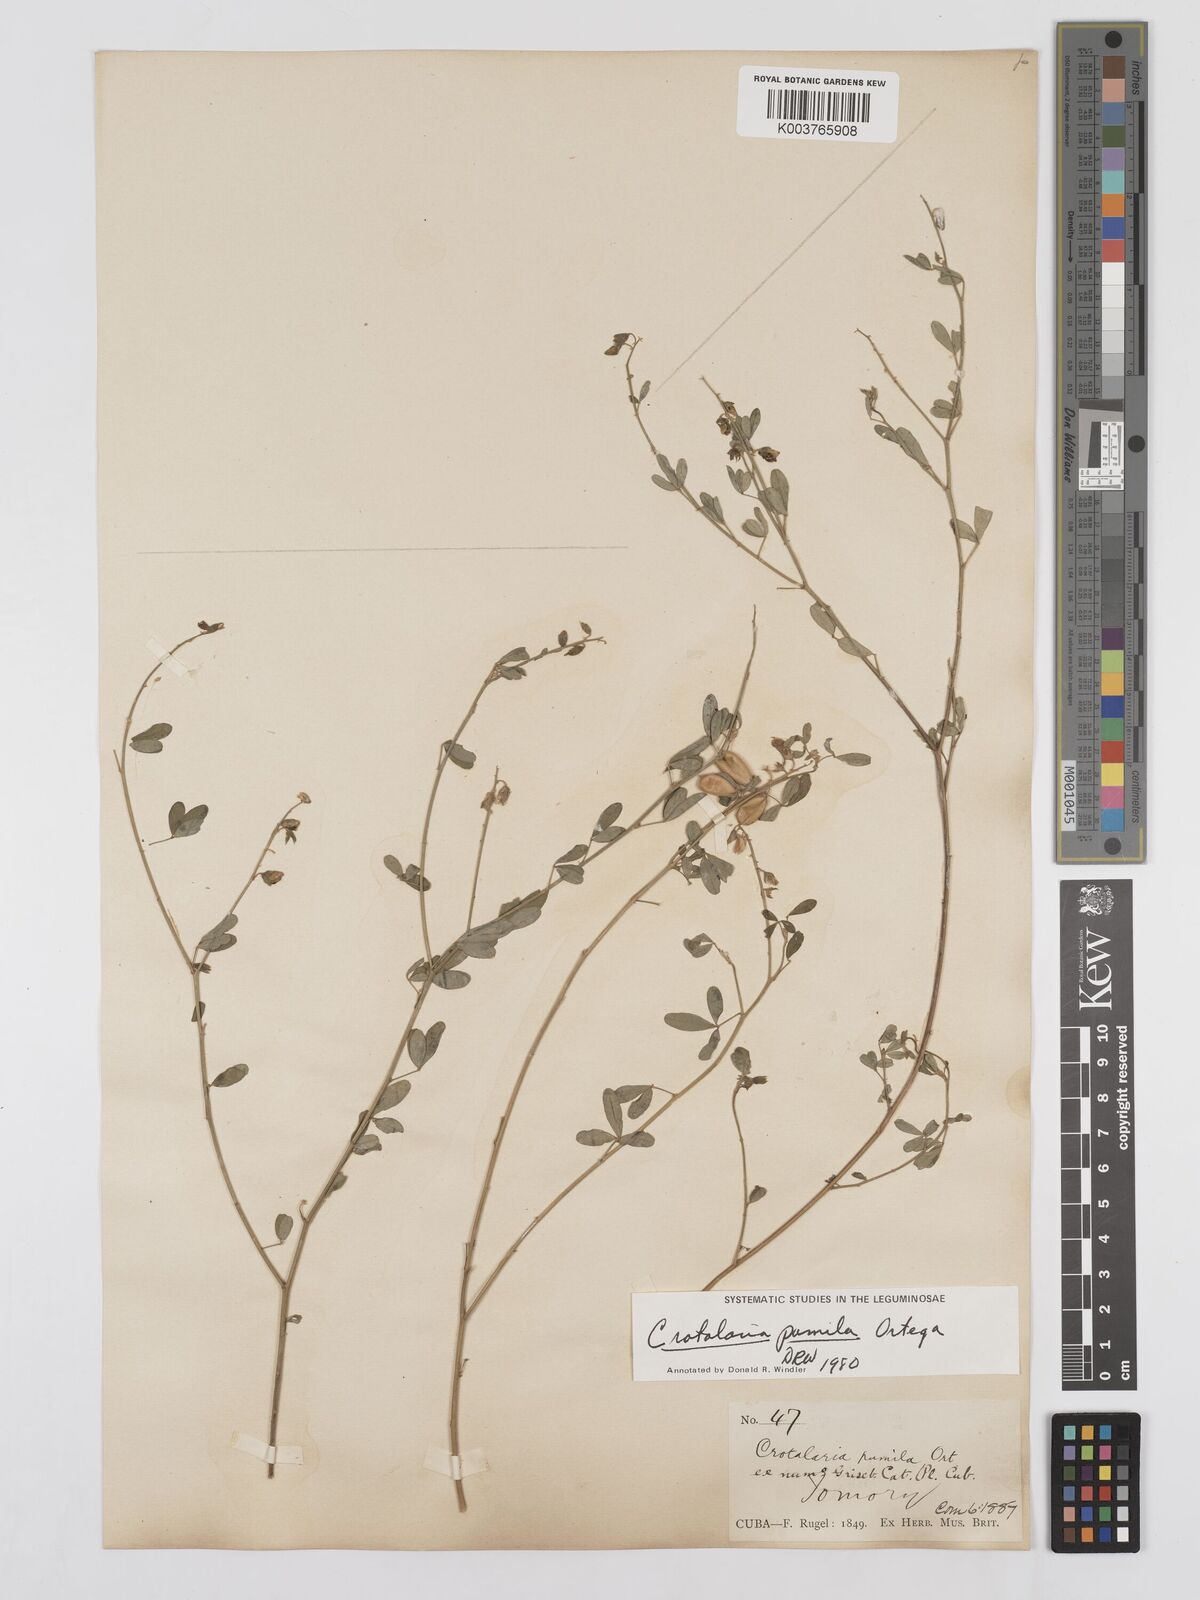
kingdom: Plantae
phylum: Tracheophyta
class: Magnoliopsida
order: Fabales
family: Fabaceae
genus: Crotalaria
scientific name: Crotalaria pumila
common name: Low rattlebox
